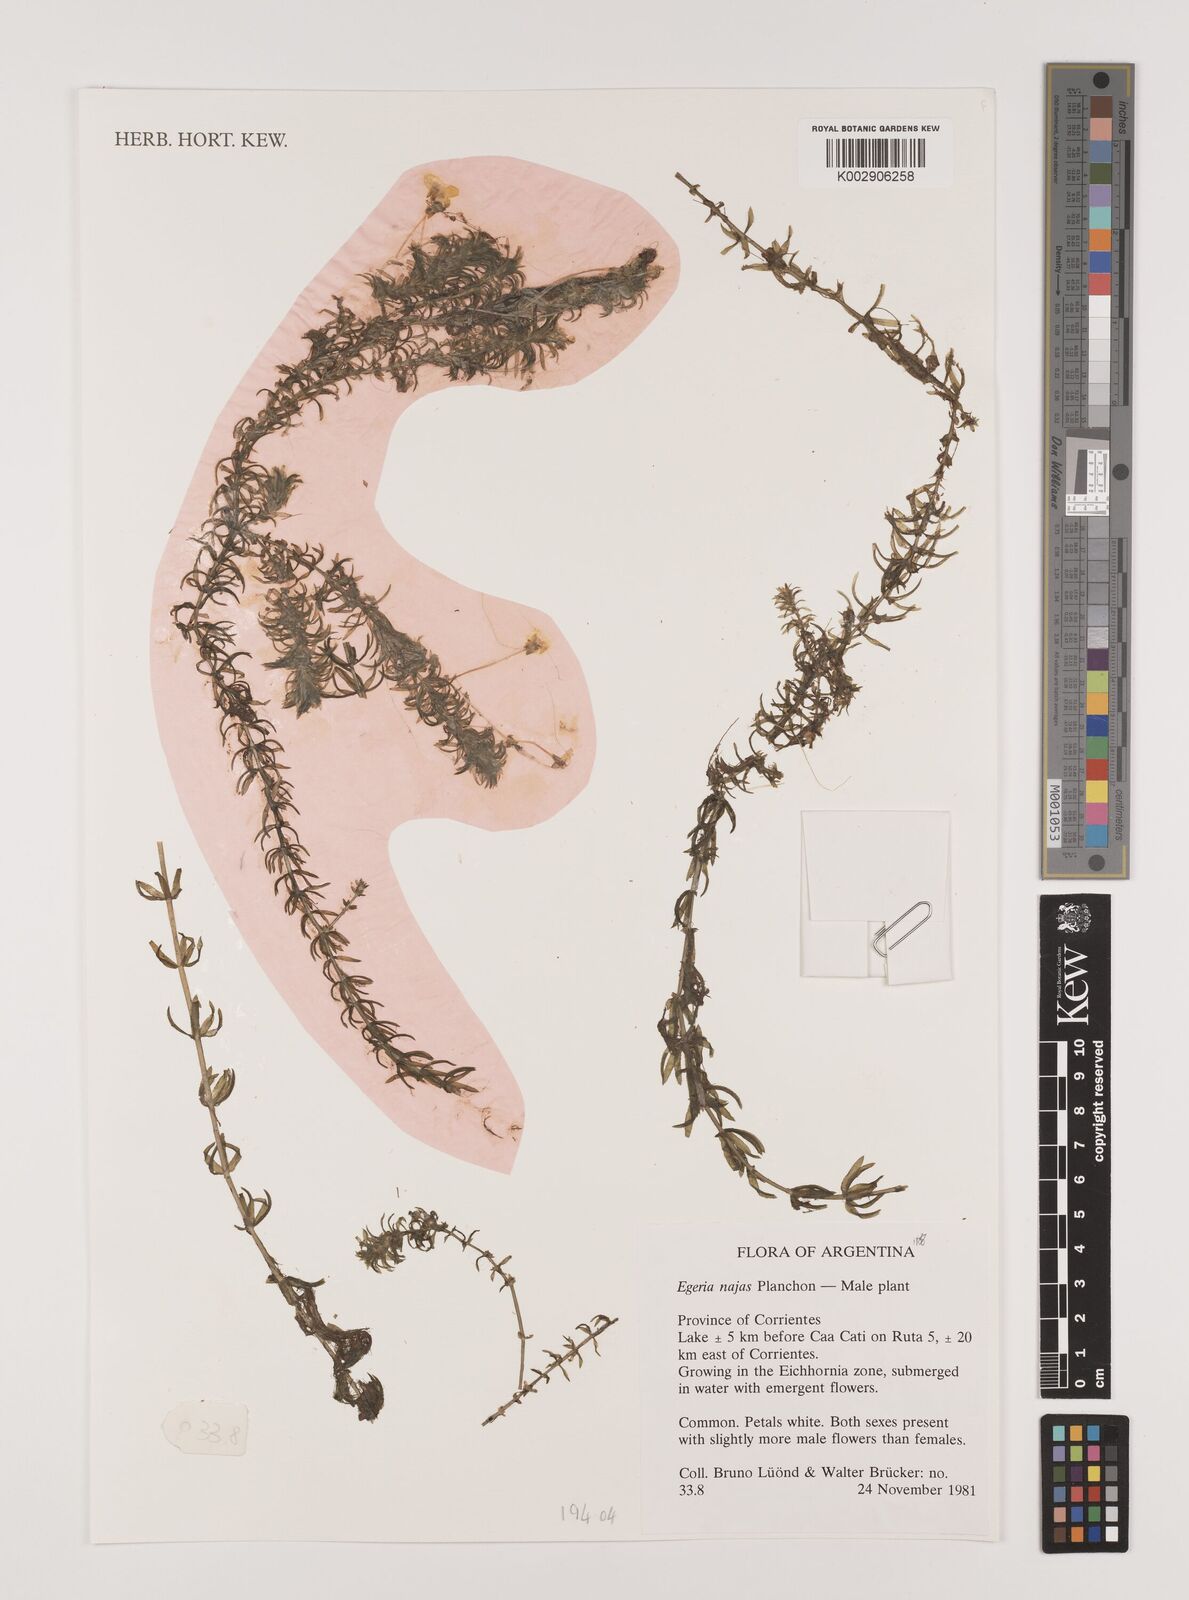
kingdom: Plantae
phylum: Tracheophyta
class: Liliopsida
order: Alismatales
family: Hydrocharitaceae
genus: Elodea
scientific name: Elodea najas
